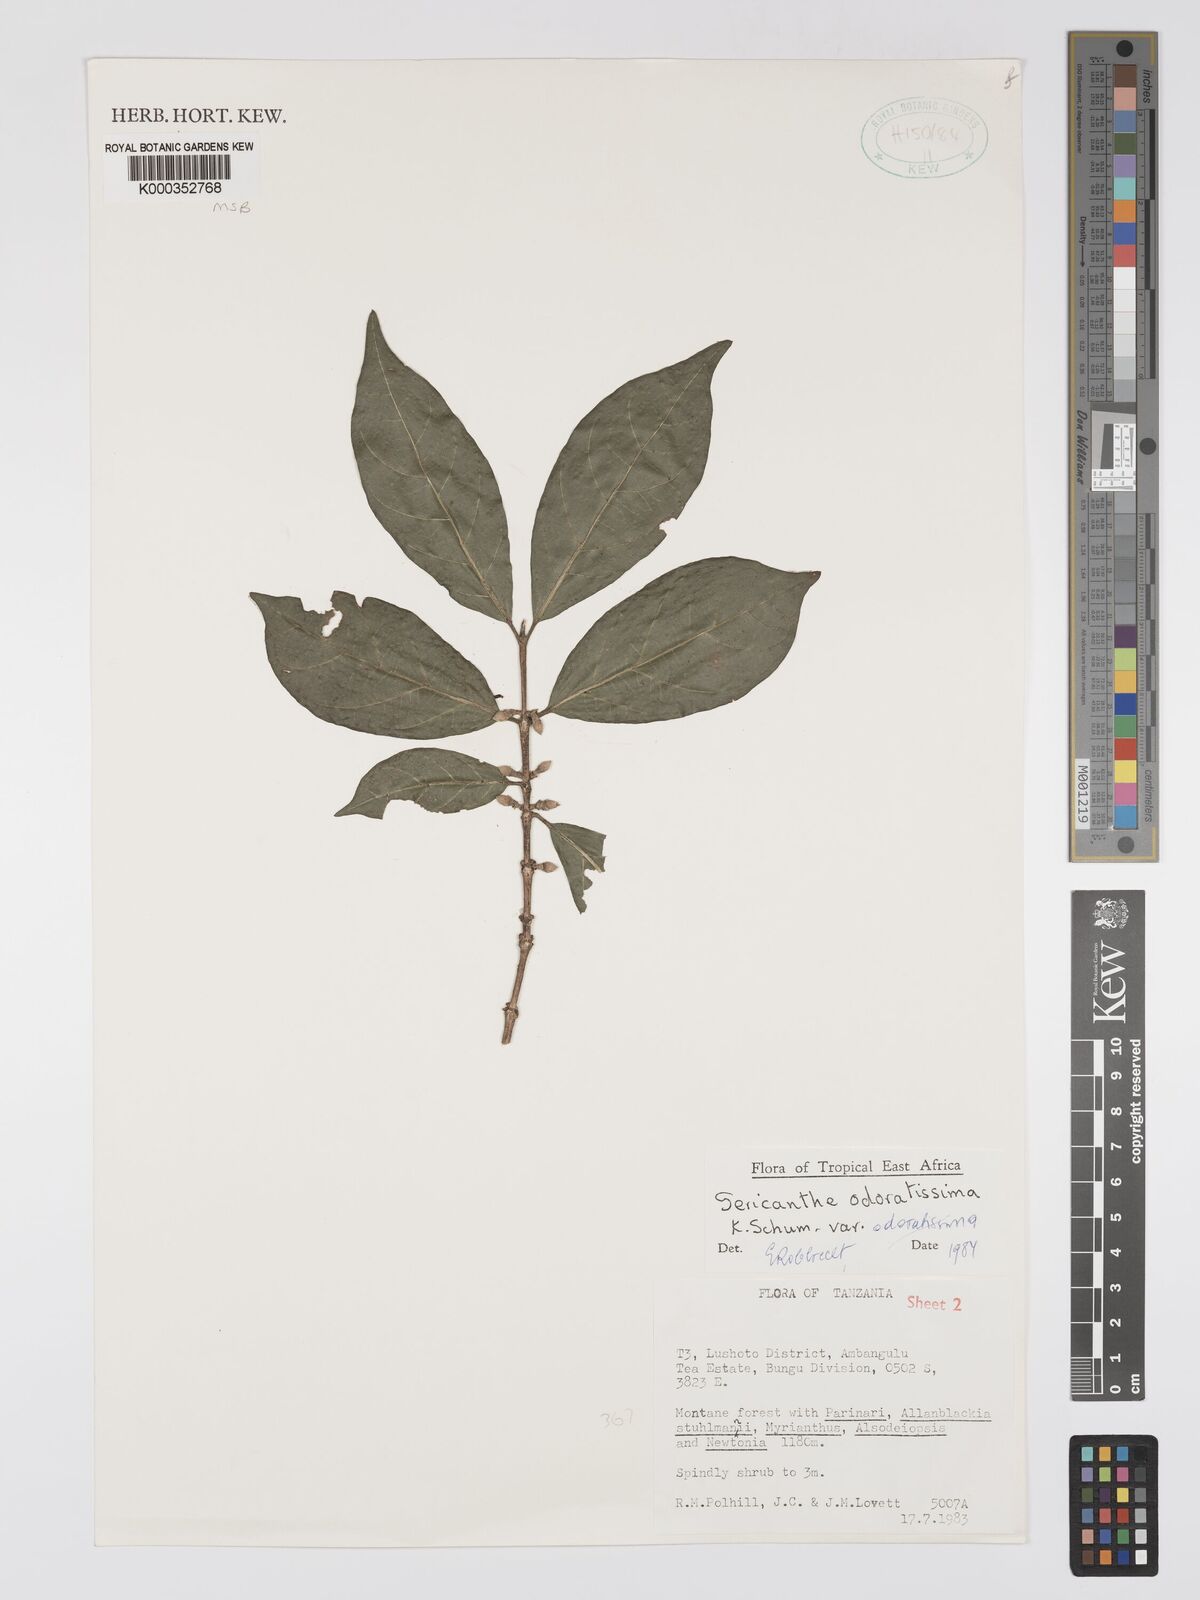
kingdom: Plantae
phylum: Tracheophyta
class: Magnoliopsida
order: Gentianales
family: Rubiaceae
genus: Sericanthe
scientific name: Sericanthe odoratissima
